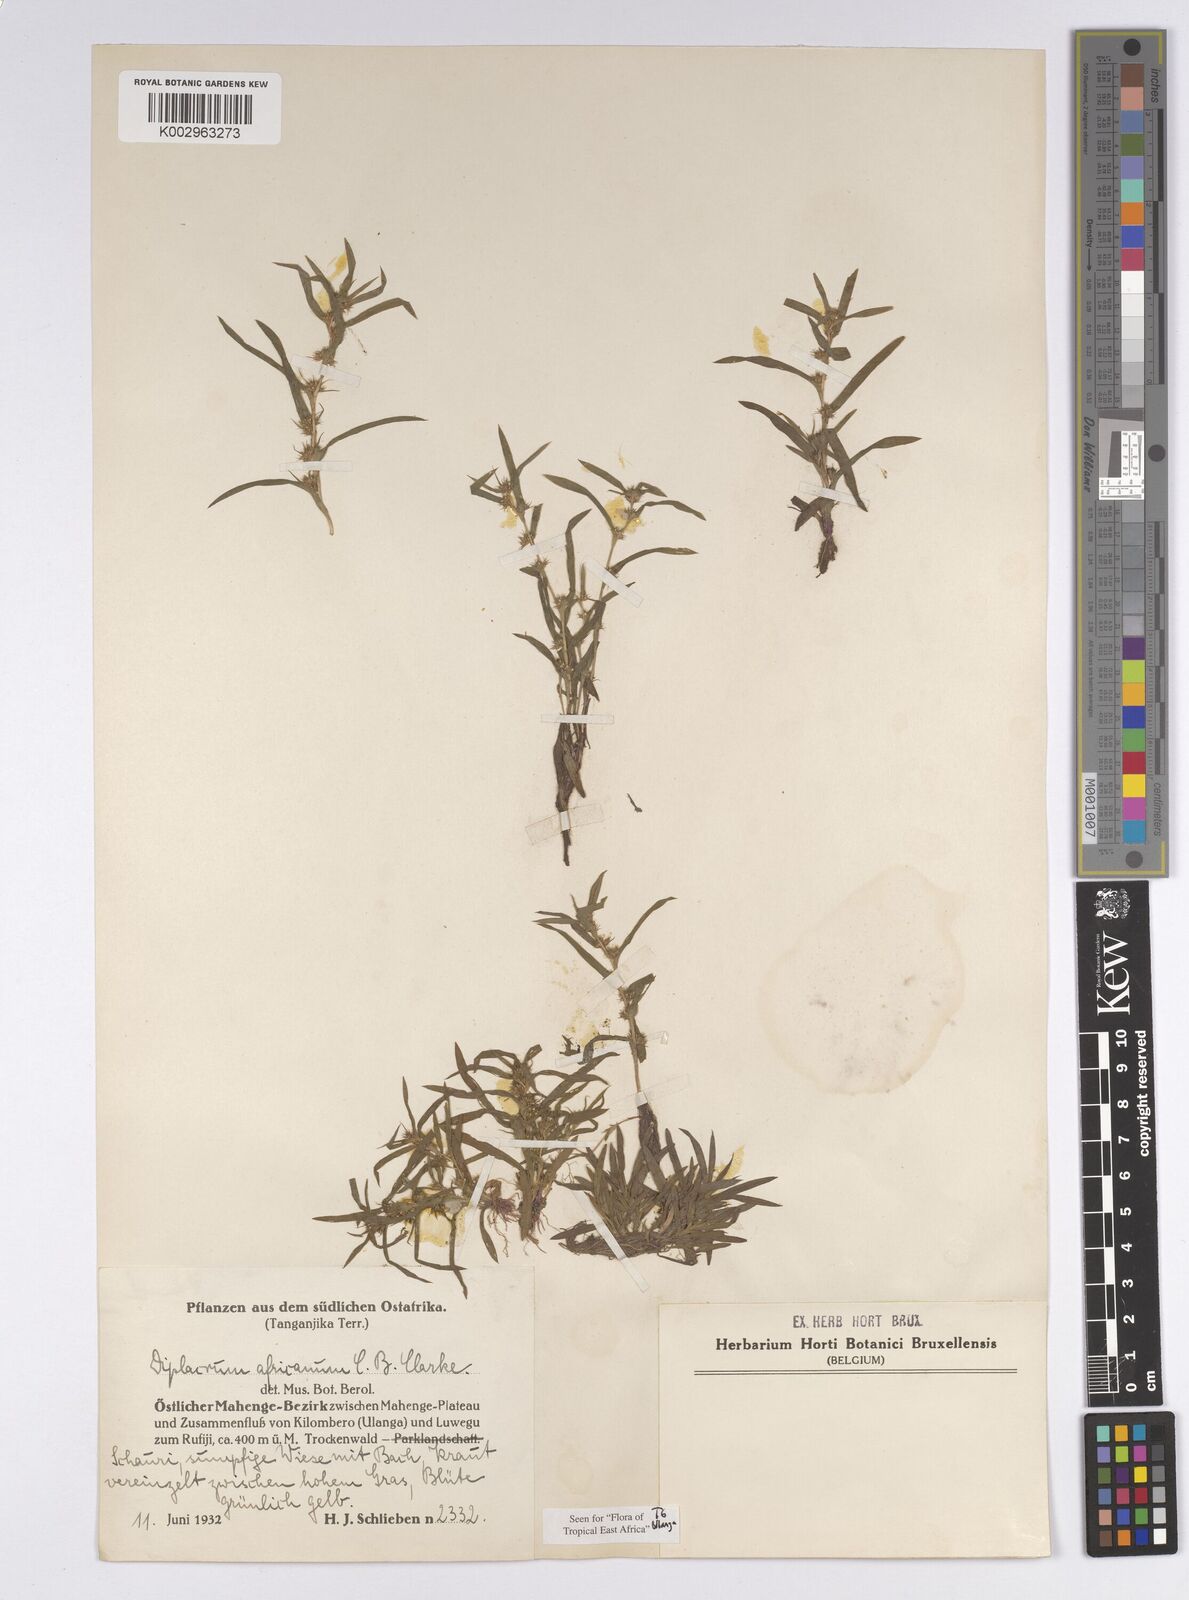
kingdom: Plantae
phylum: Tracheophyta
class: Liliopsida
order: Poales
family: Cyperaceae
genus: Diplacrum
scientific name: Diplacrum africanum
